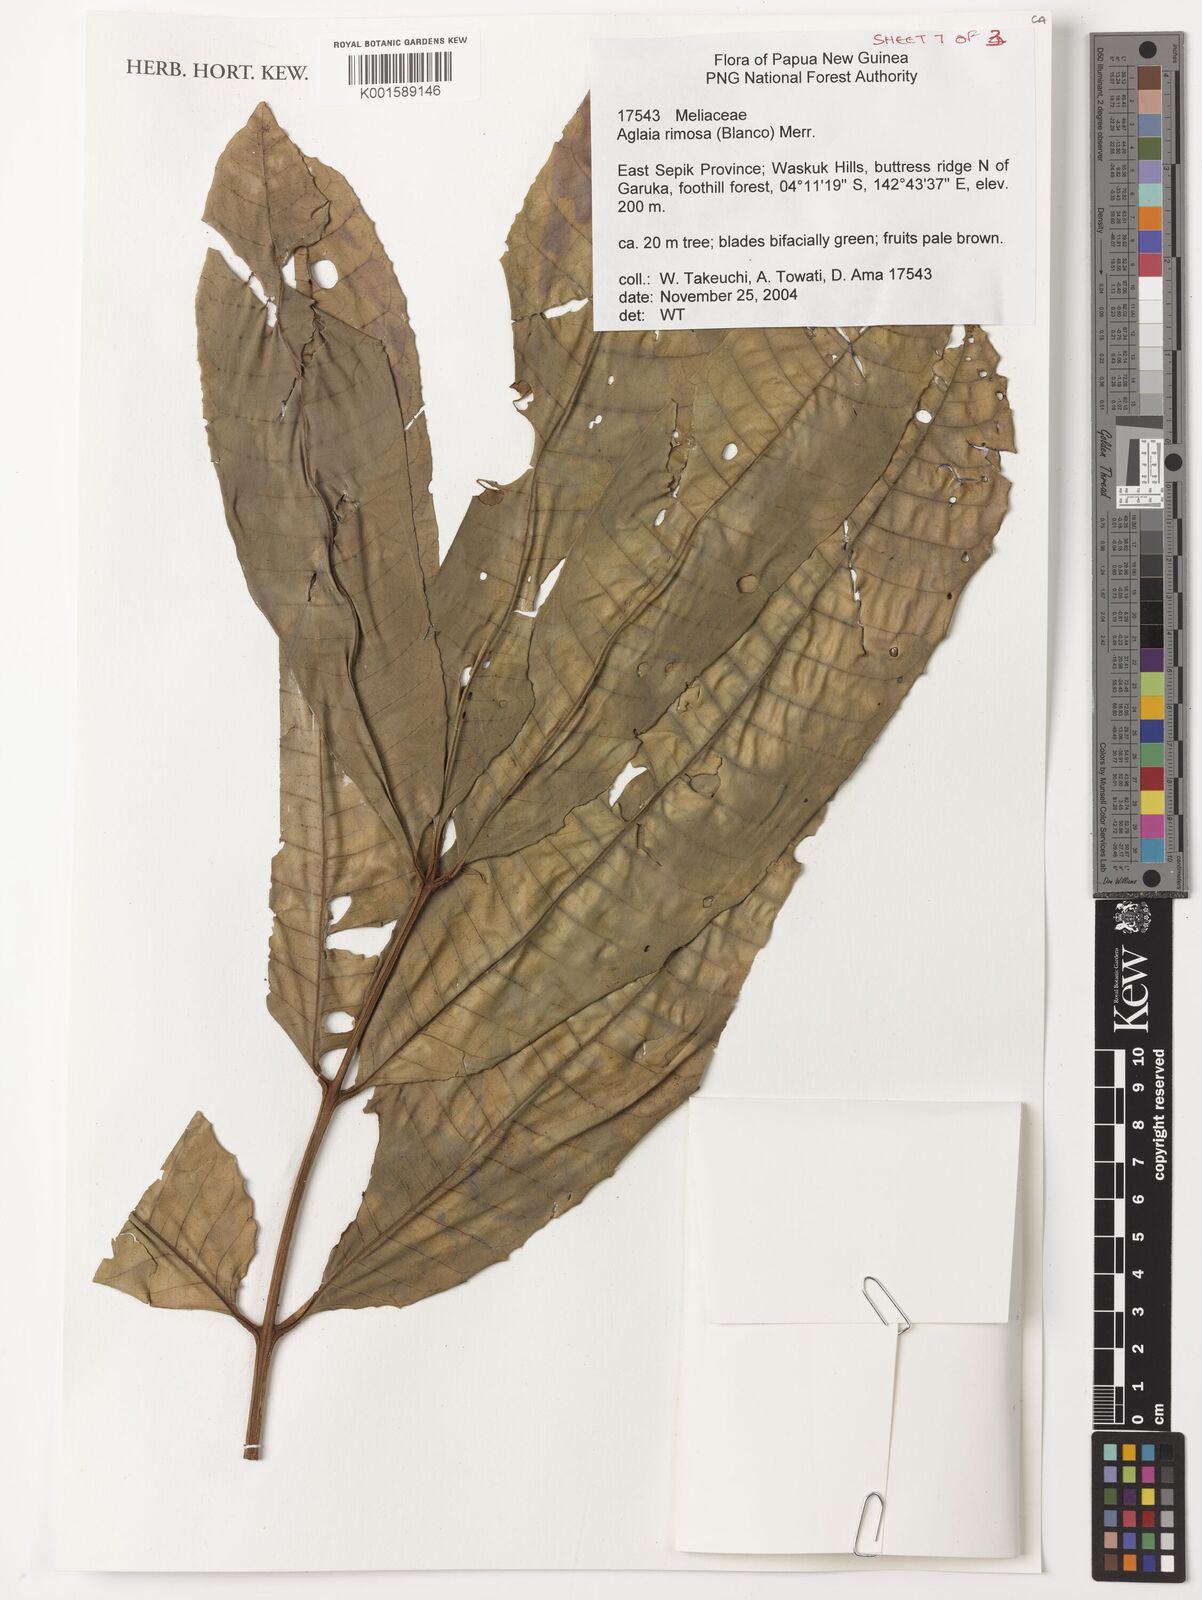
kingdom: Plantae
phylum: Tracheophyta
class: Magnoliopsida
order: Sapindales
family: Meliaceae
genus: Aglaia
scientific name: Aglaia rimosa
